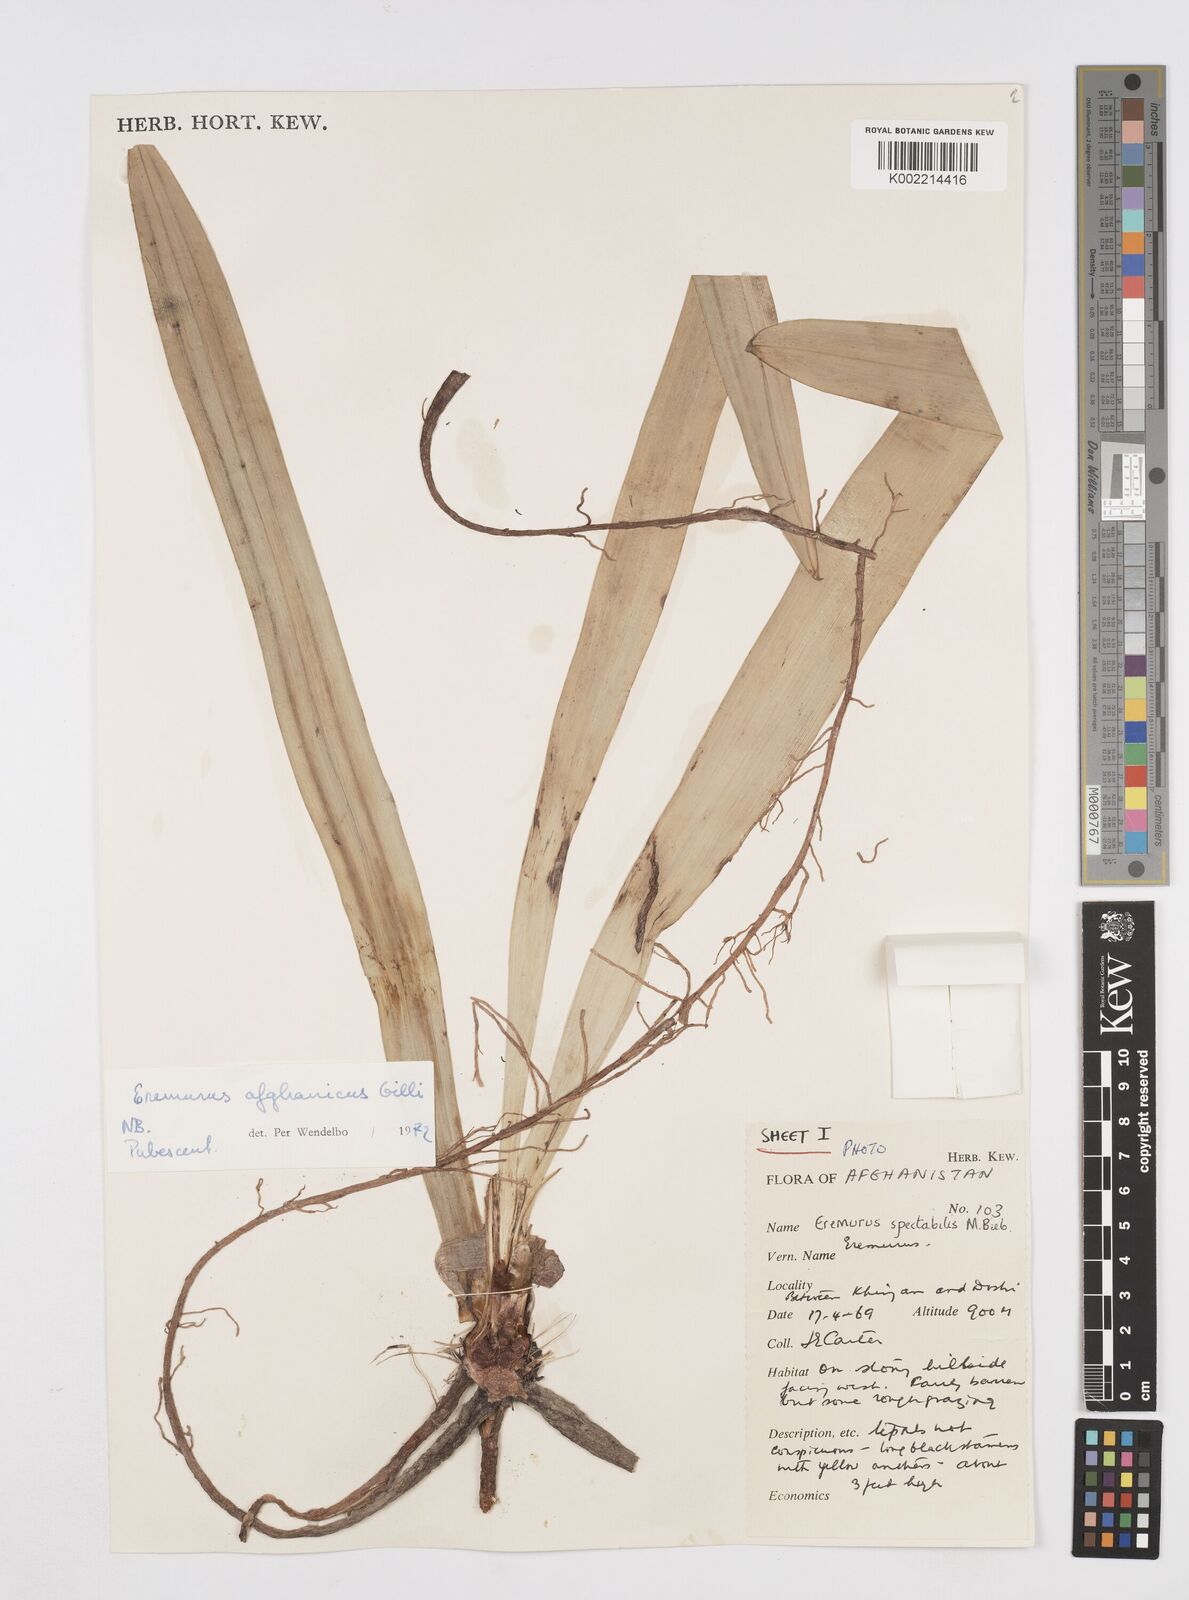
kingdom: Plantae
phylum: Tracheophyta
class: Liliopsida
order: Asparagales
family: Asphodelaceae
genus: Eremurus
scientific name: Eremurus afghanicus
